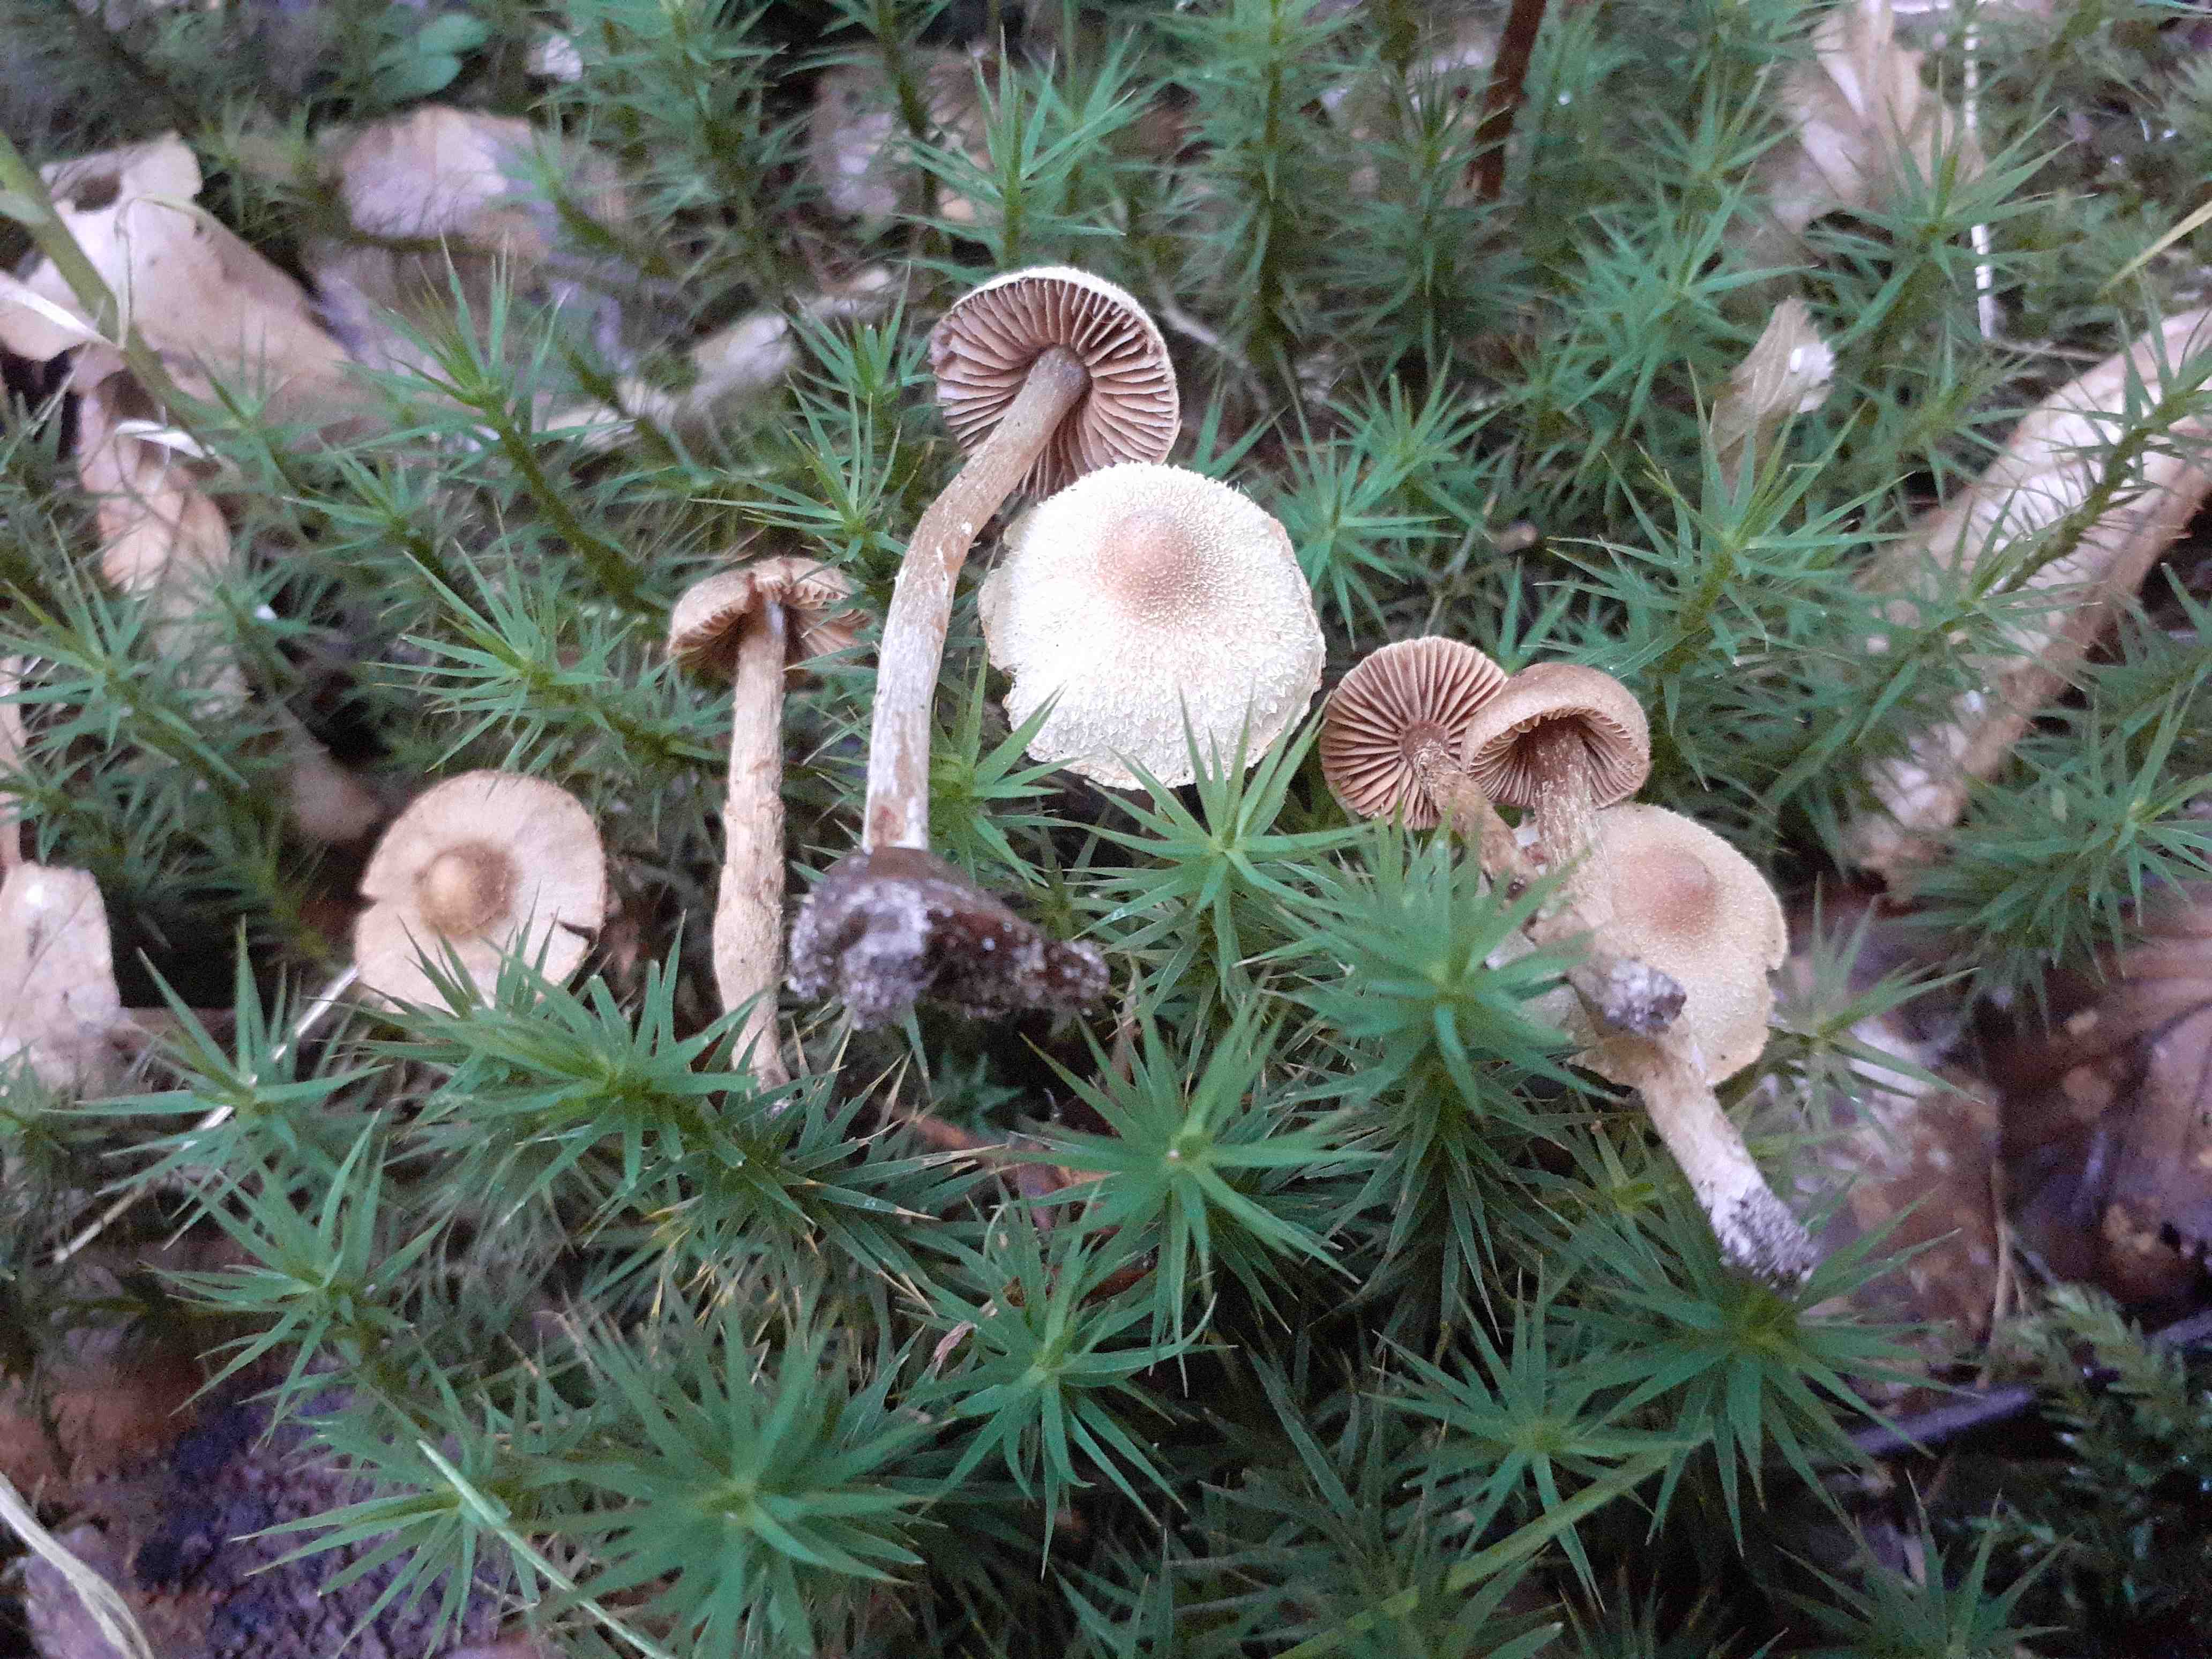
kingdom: Fungi
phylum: Basidiomycota
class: Agaricomycetes
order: Agaricales
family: Cortinariaceae
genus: Cortinarius
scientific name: Cortinarius castaneopallidus
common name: bronzetrævlet slørhat
